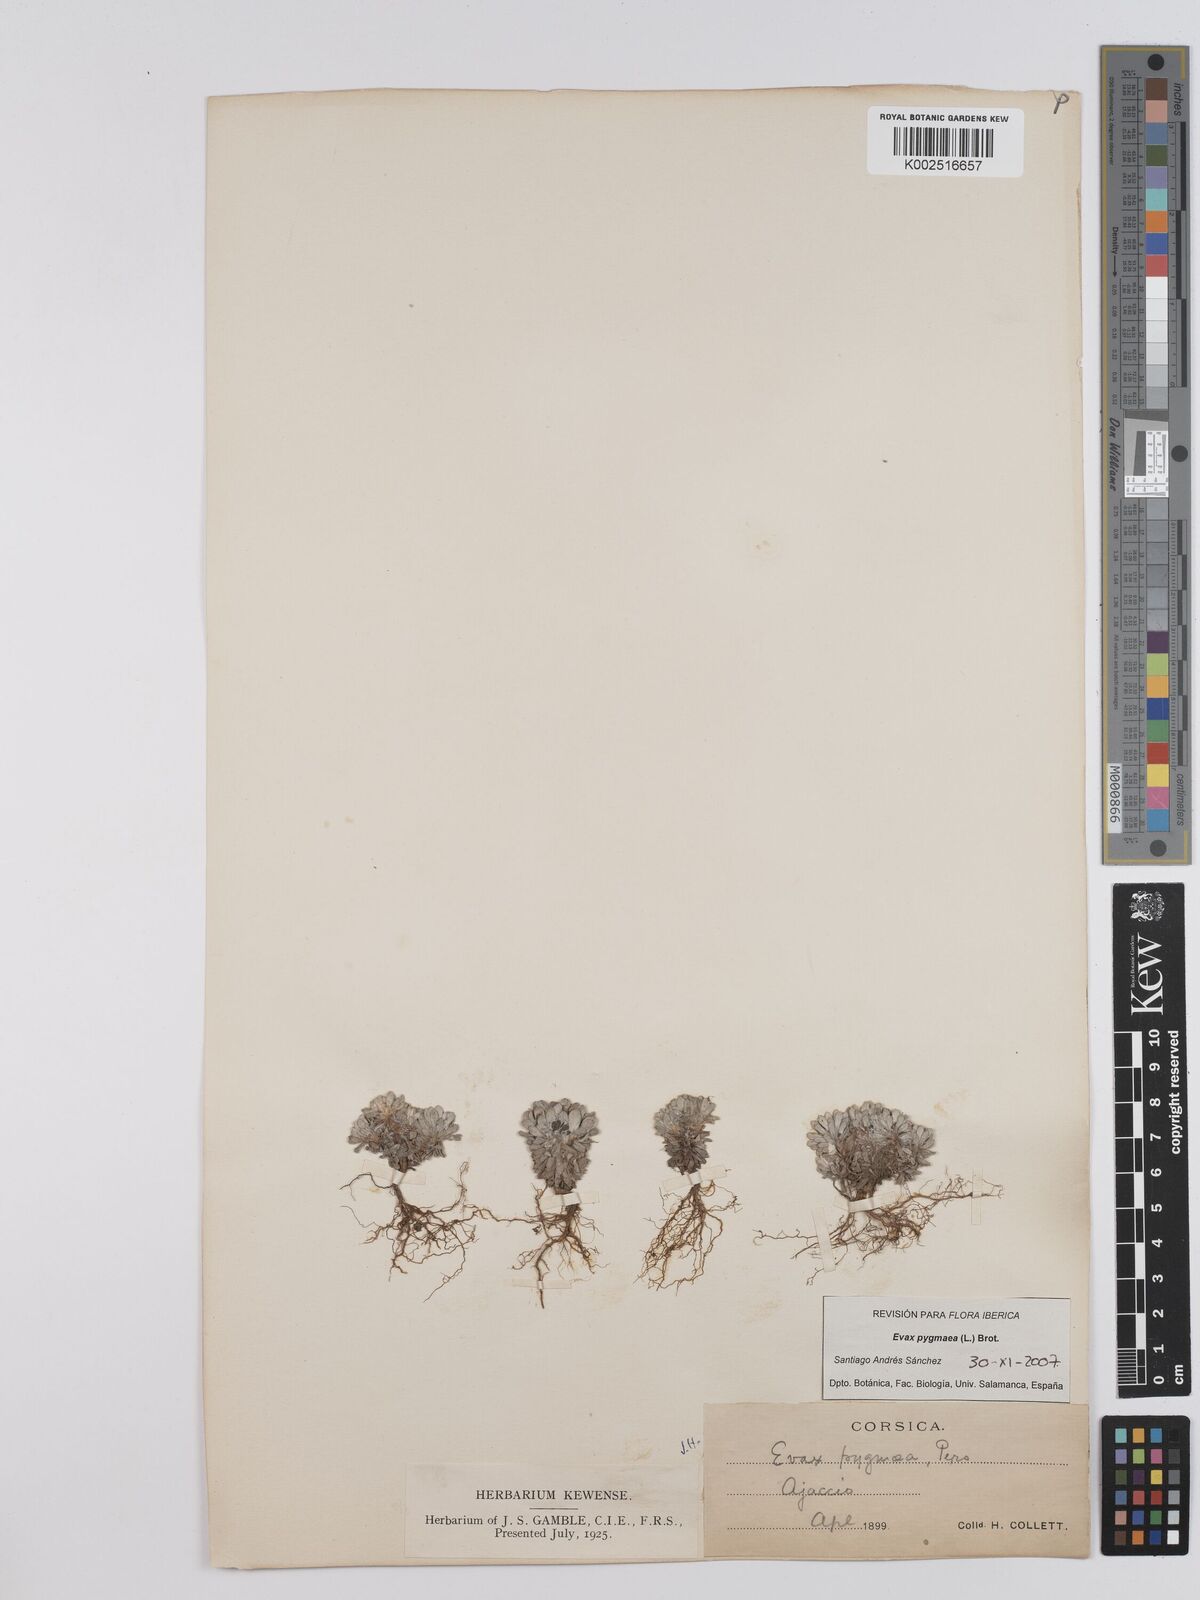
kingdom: Plantae
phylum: Tracheophyta
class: Magnoliopsida
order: Asterales
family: Asteraceae
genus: Filago
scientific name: Filago pygmaea
